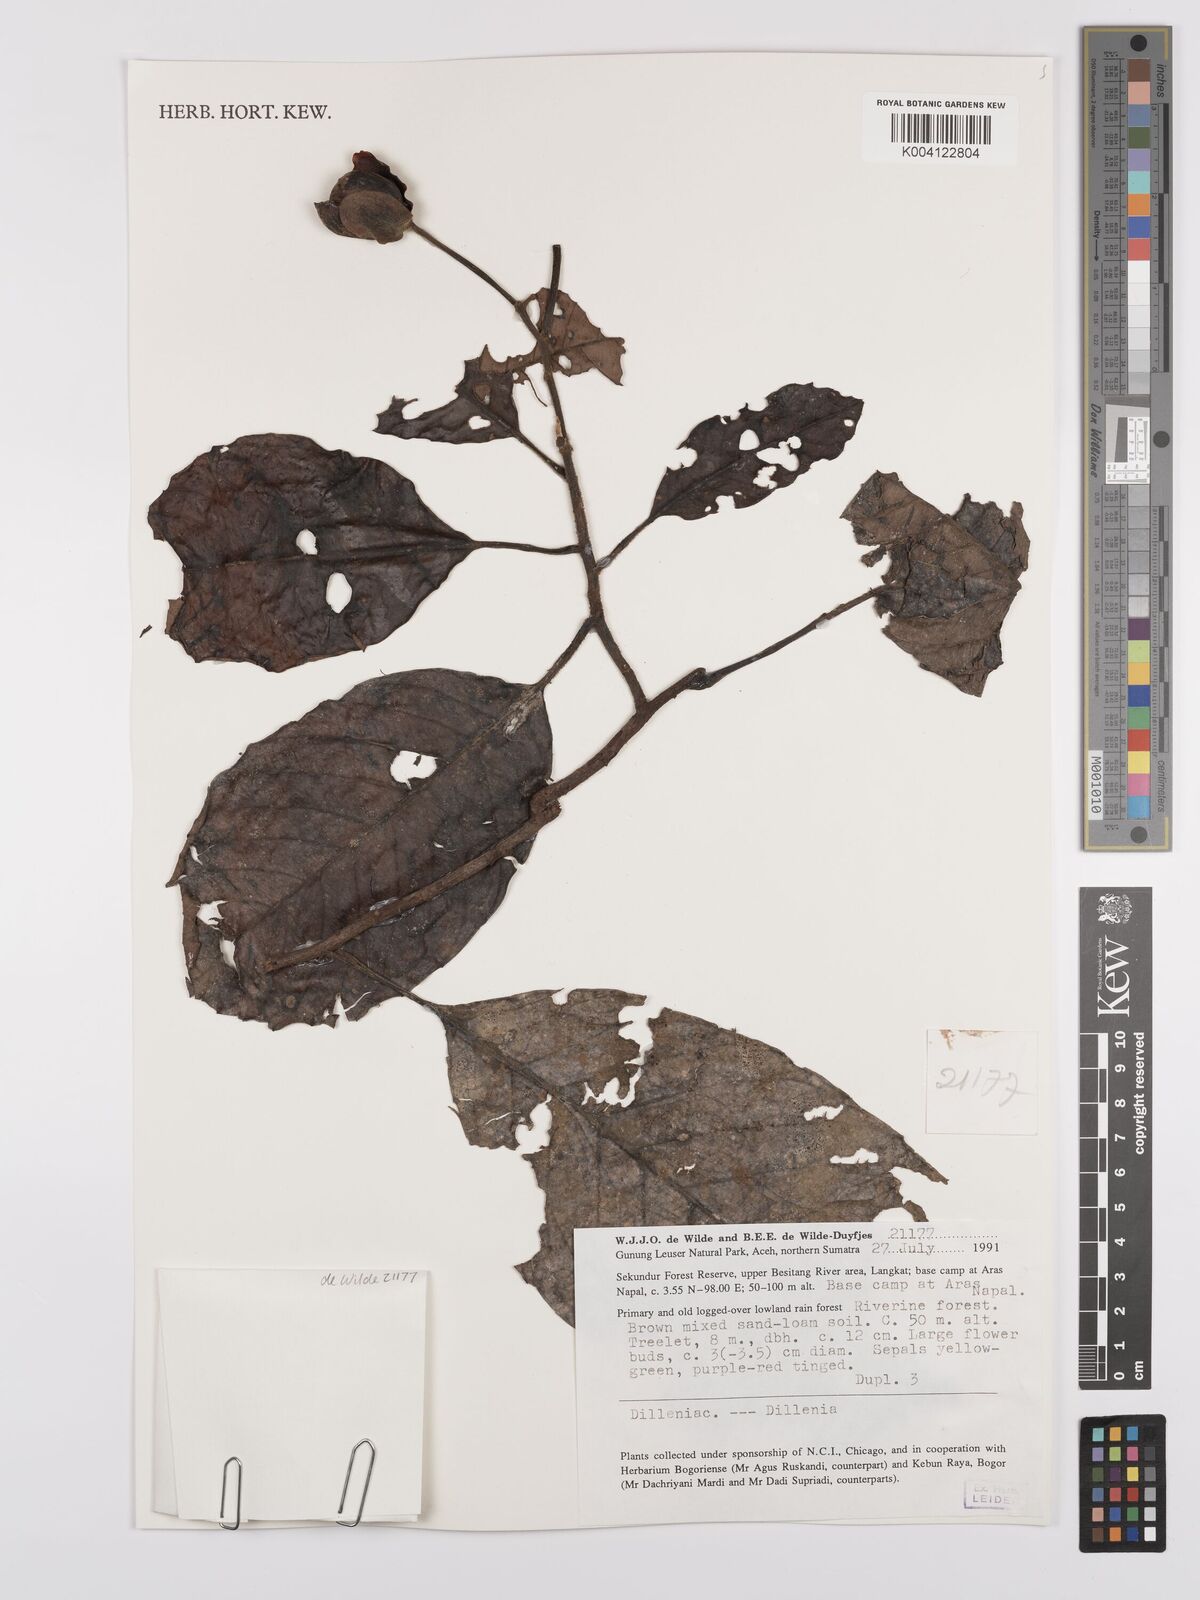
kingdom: Plantae
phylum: Tracheophyta
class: Magnoliopsida
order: Dilleniales
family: Dilleniaceae
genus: Dillenia
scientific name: Dillenia
